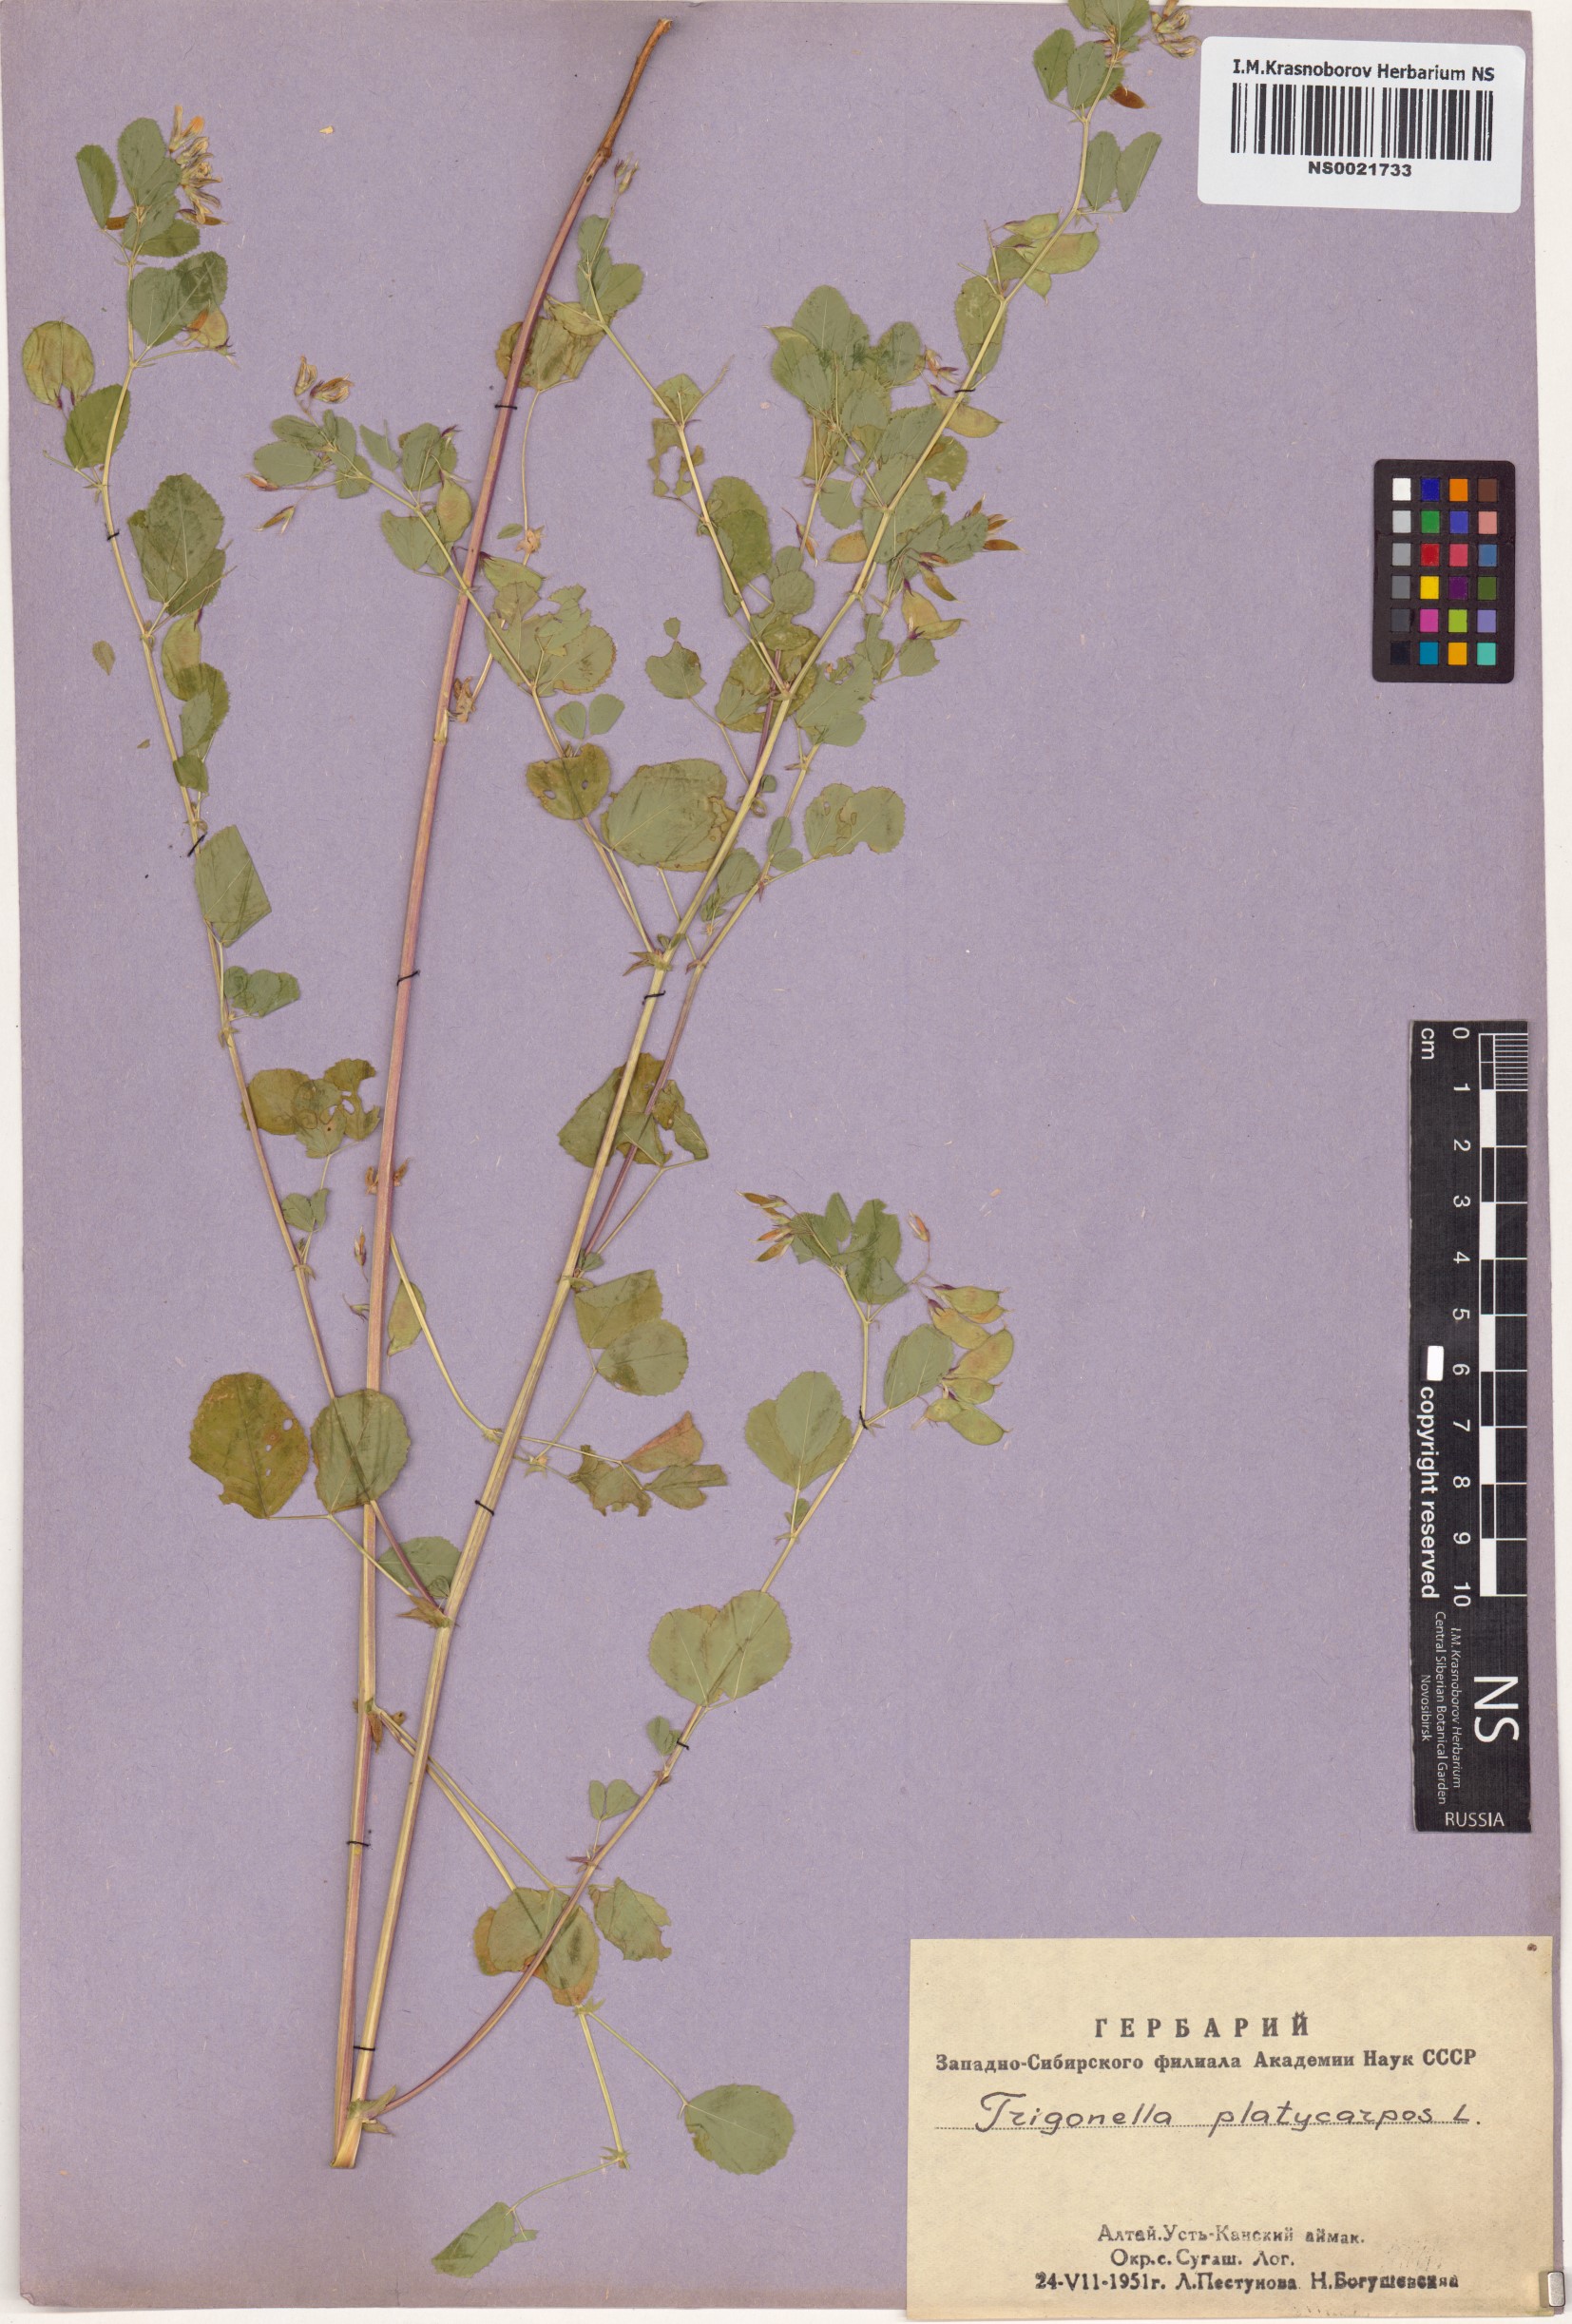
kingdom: Plantae
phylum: Tracheophyta
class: Magnoliopsida
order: Fabales
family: Fabaceae
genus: Medicago
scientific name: Medicago platycarpos
